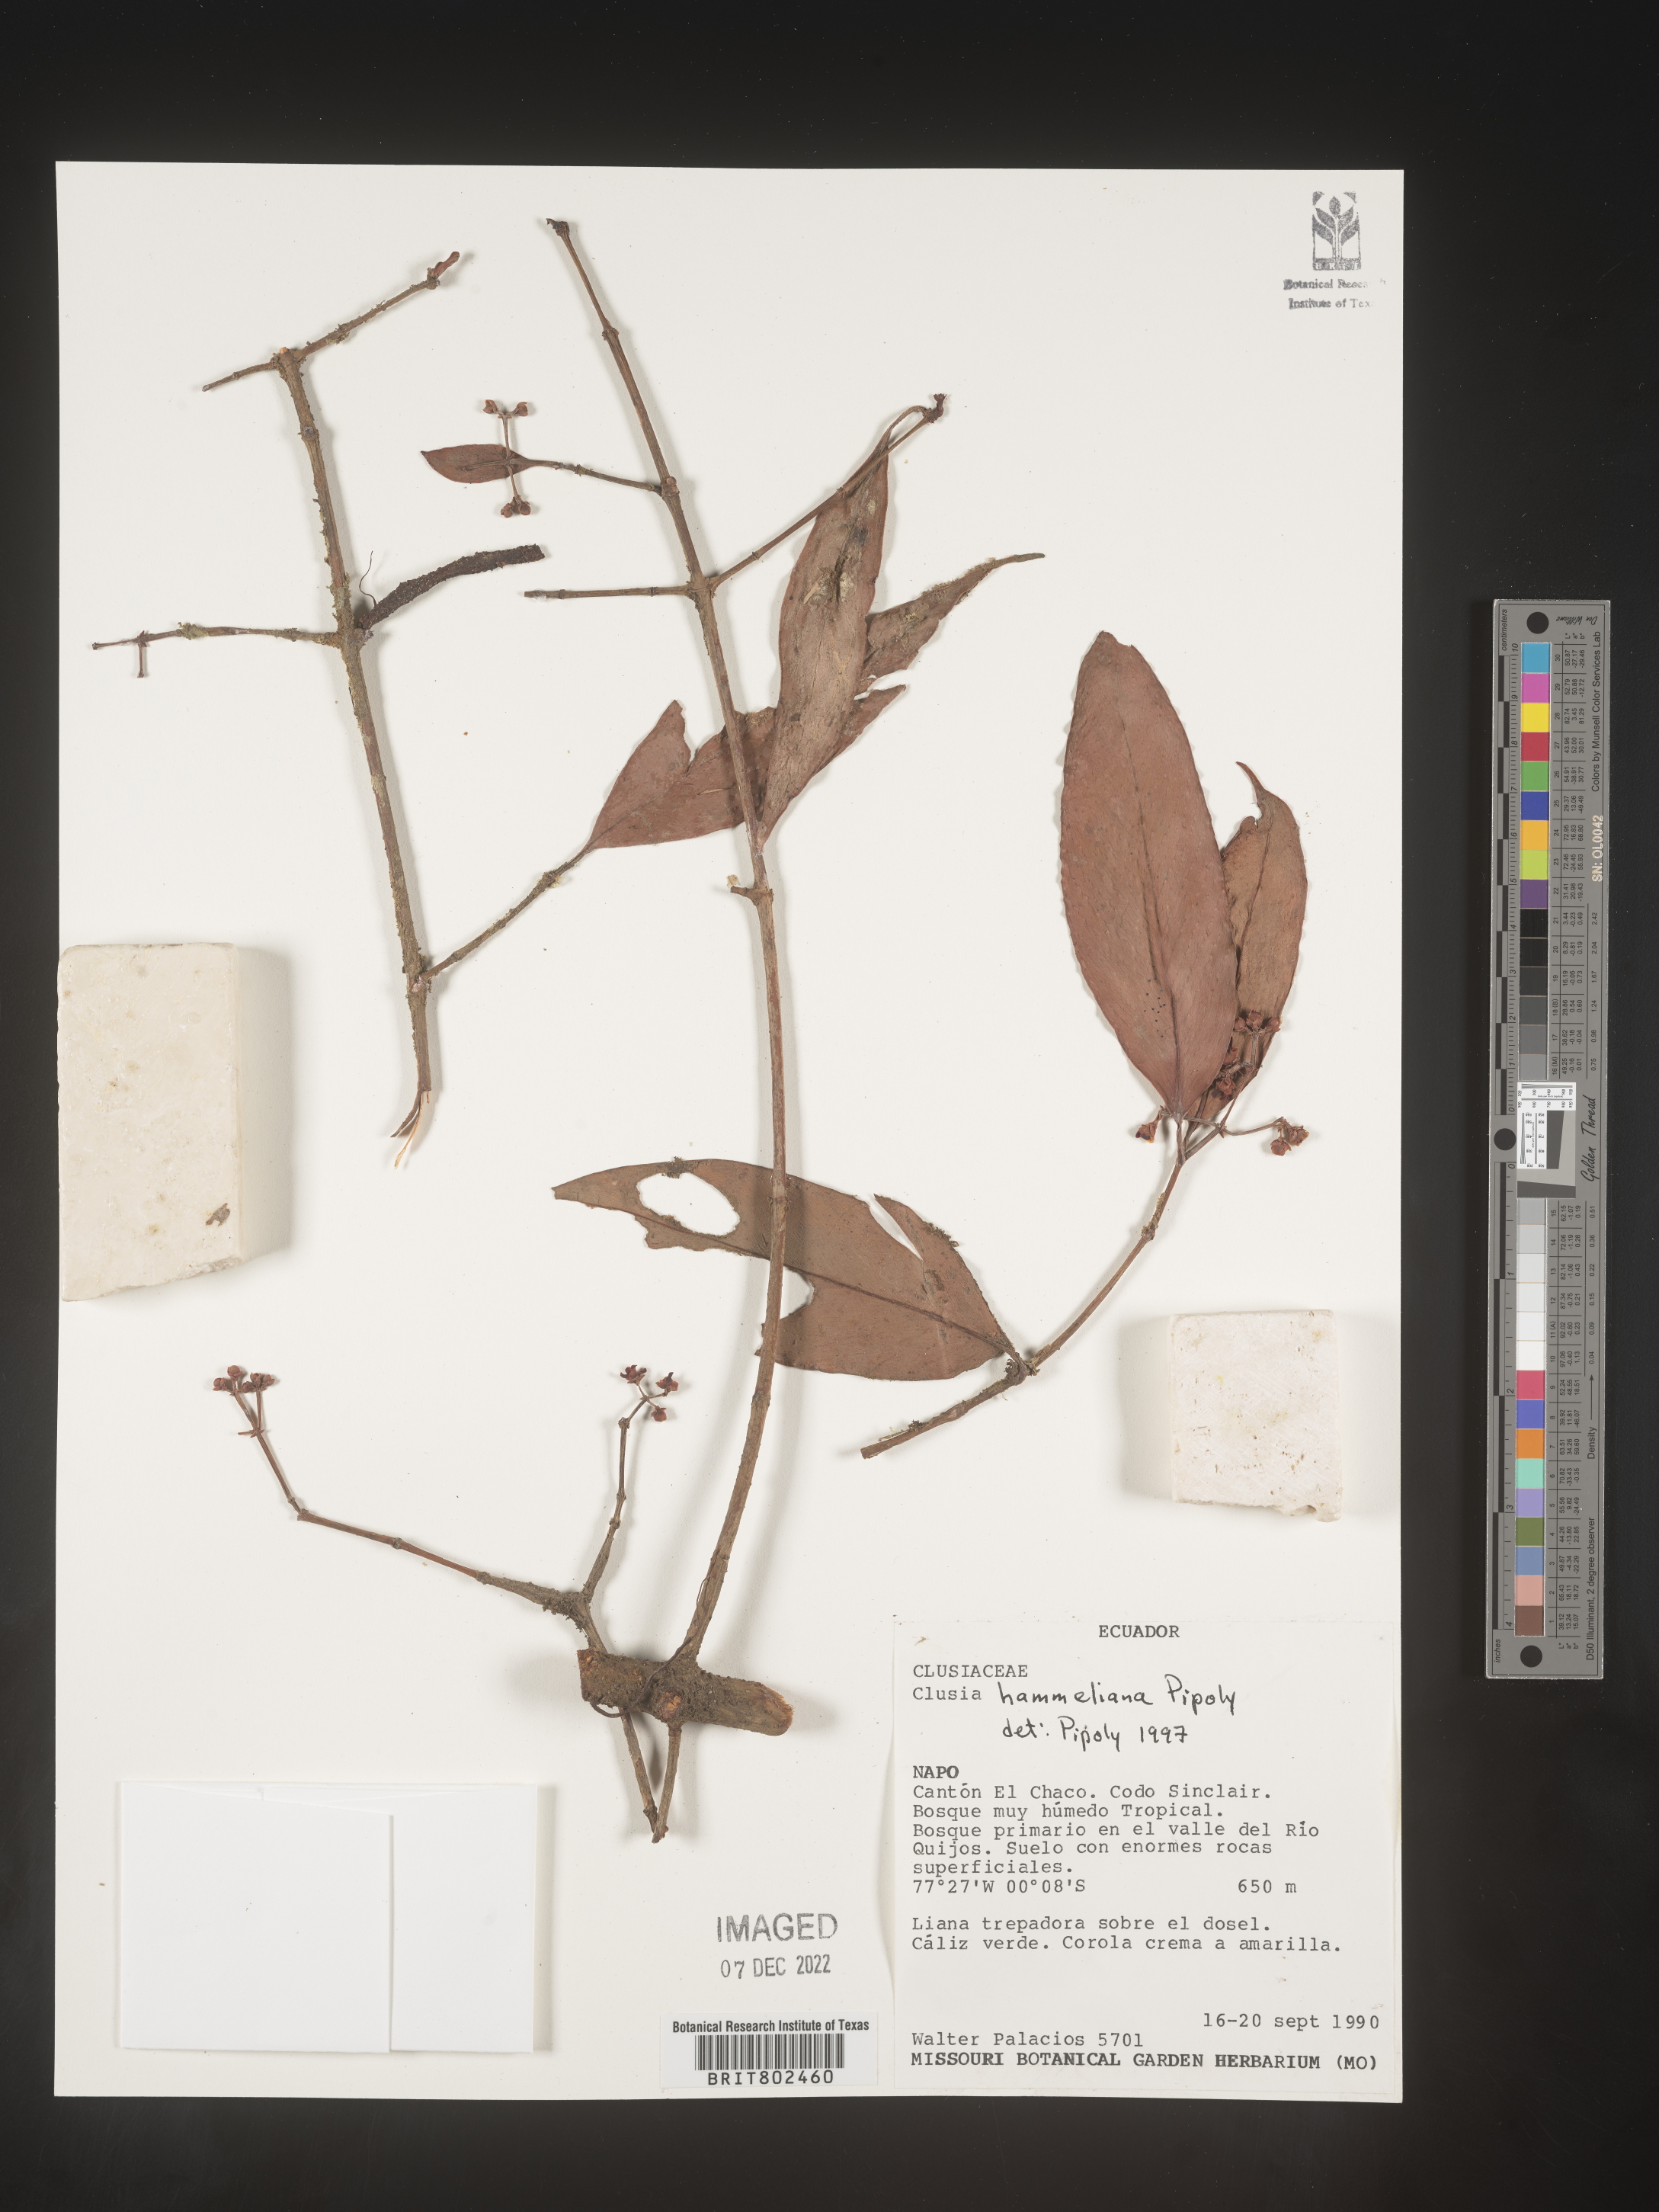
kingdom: Plantae
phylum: Tracheophyta
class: Magnoliopsida
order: Malpighiales
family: Clusiaceae
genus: Clusia
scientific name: Clusia hammeliana
